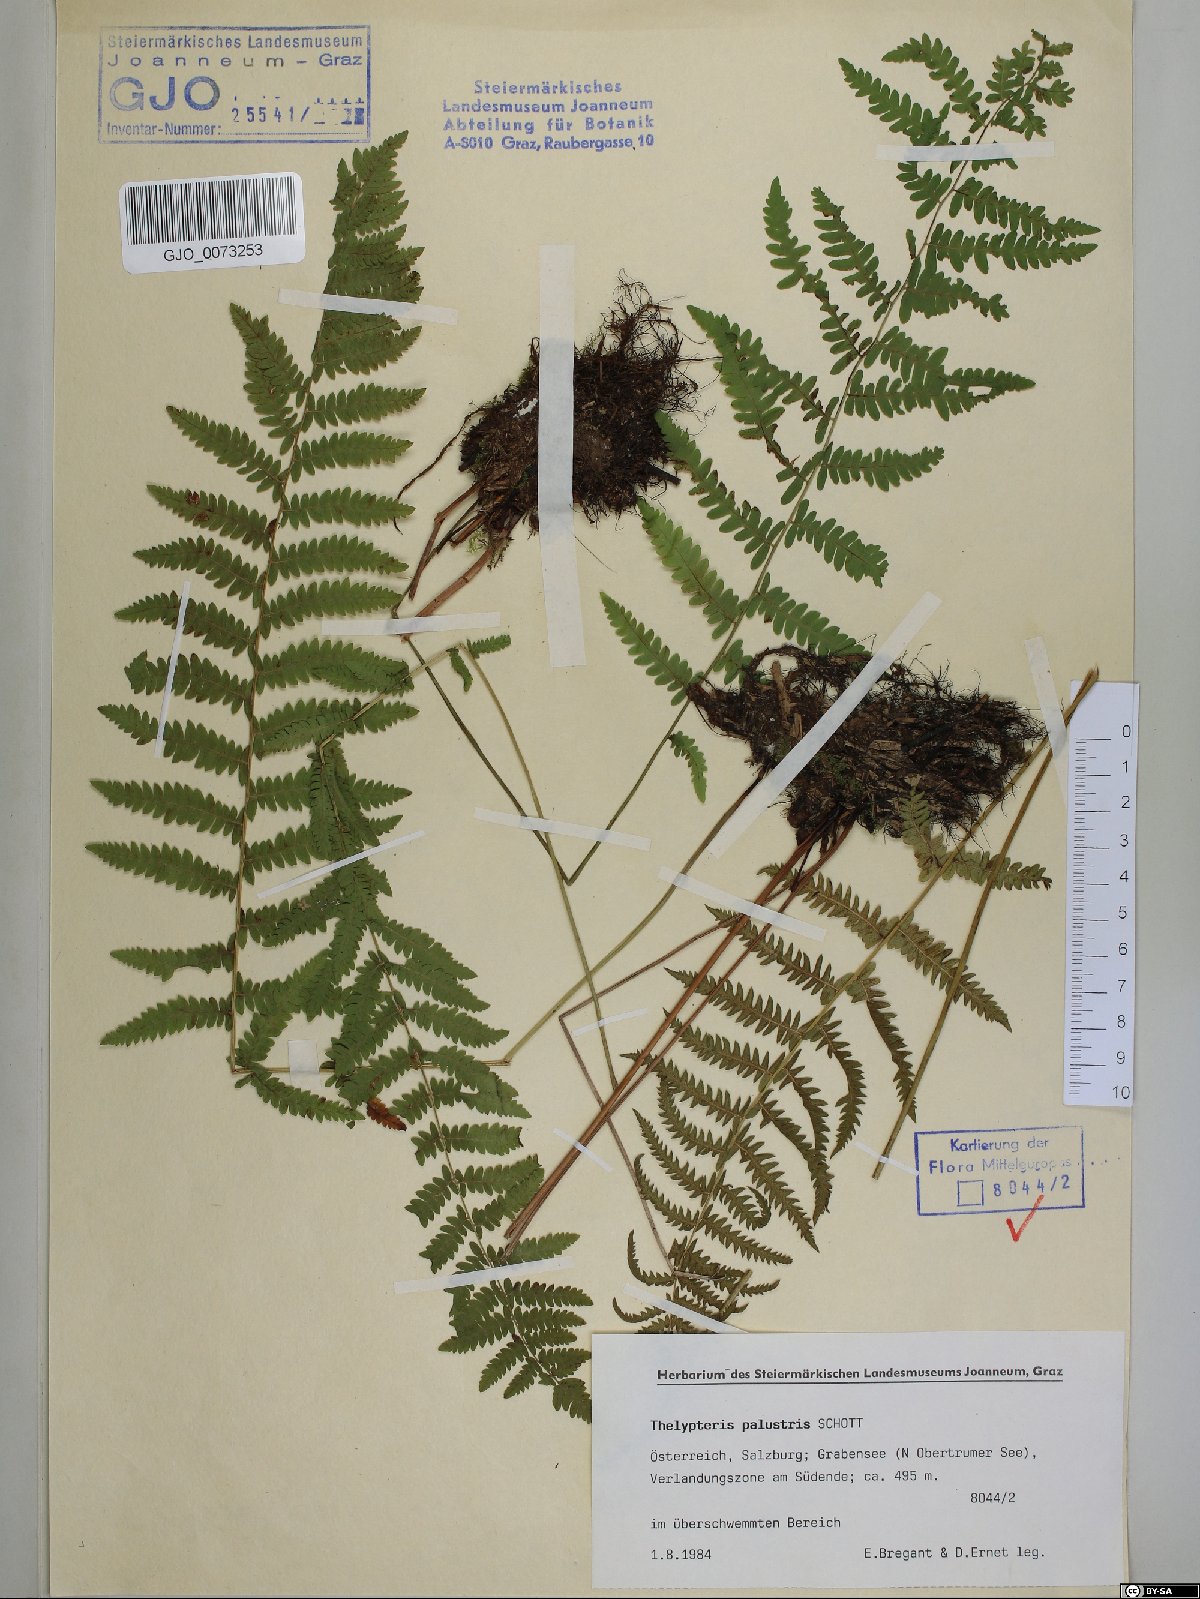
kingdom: Plantae
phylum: Tracheophyta
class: Polypodiopsida
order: Polypodiales
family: Thelypteridaceae
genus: Thelypteris
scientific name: Thelypteris palustris
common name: Marsh fern
